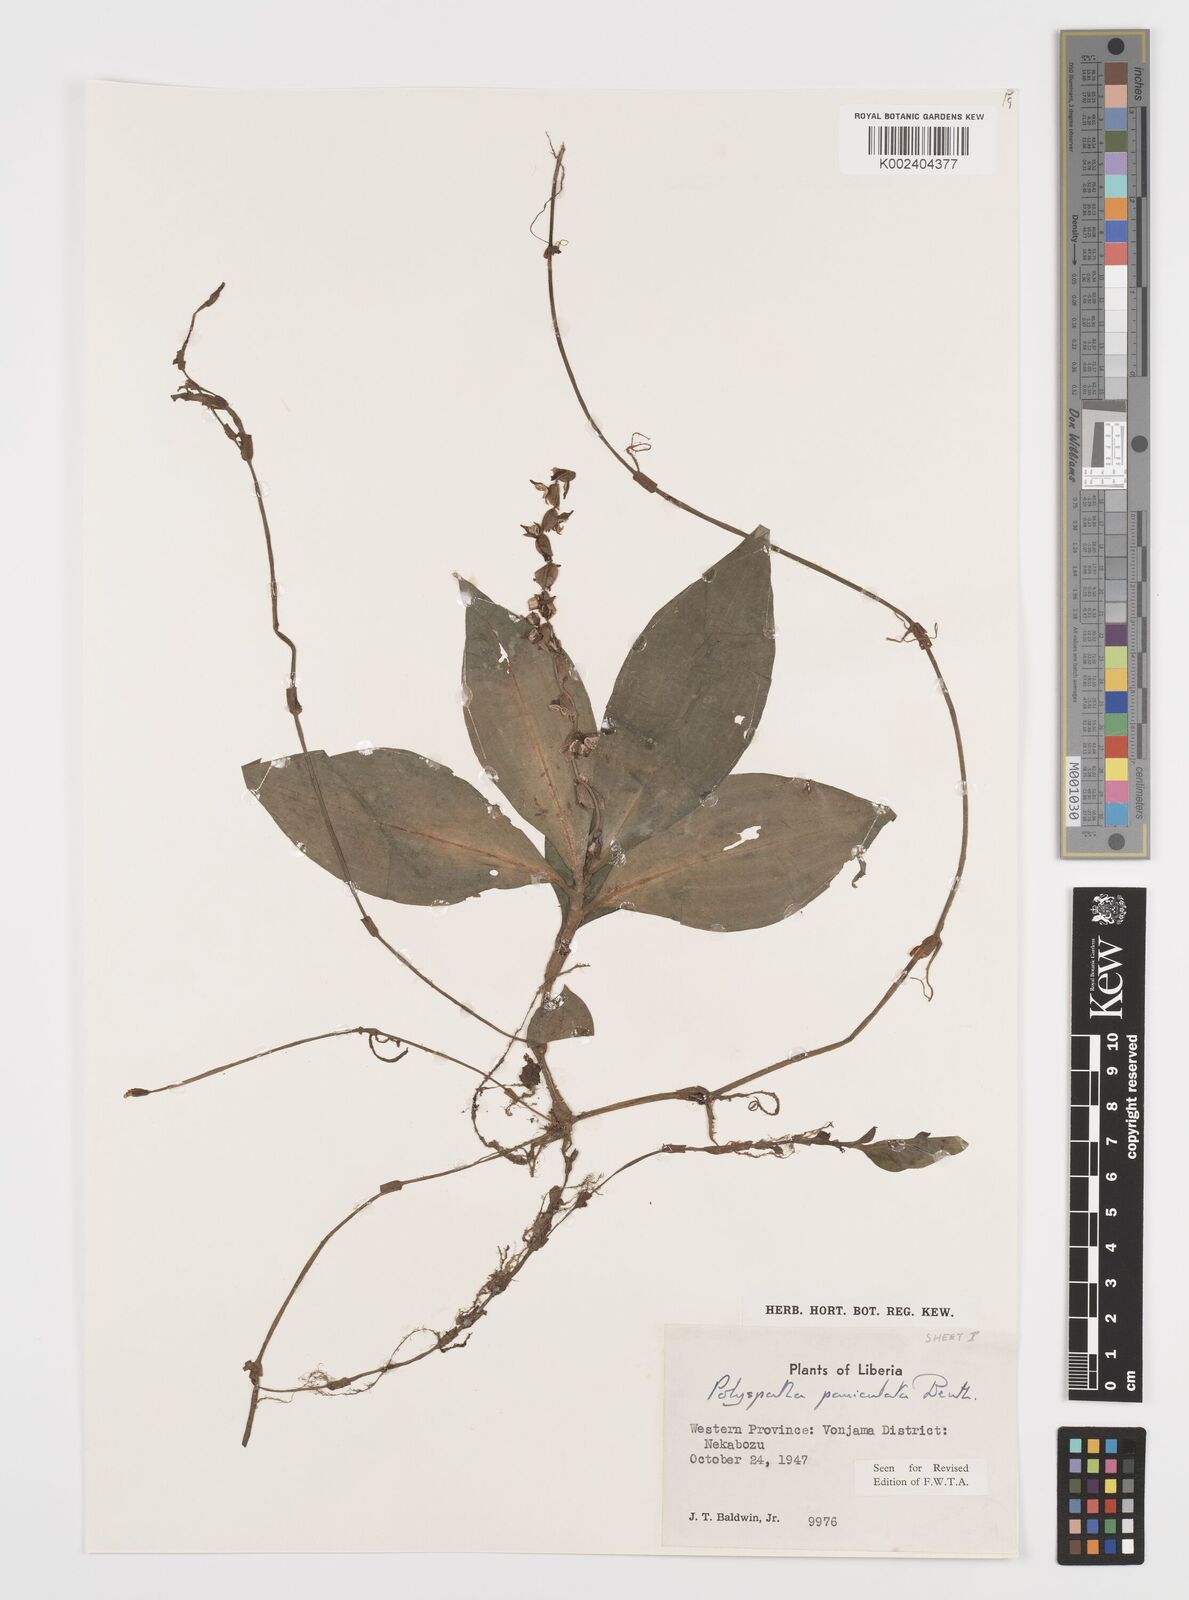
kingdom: Plantae
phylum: Tracheophyta
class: Liliopsida
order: Commelinales
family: Commelinaceae
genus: Polyspatha
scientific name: Polyspatha paniculata
